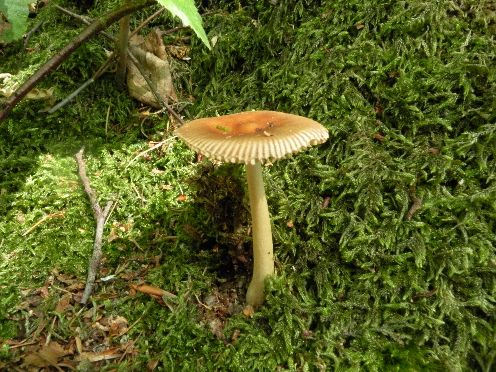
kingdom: Fungi
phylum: Basidiomycota
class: Agaricomycetes
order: Agaricales
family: Amanitaceae
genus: Amanita
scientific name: Amanita fulva
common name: brun kam-fluesvamp
